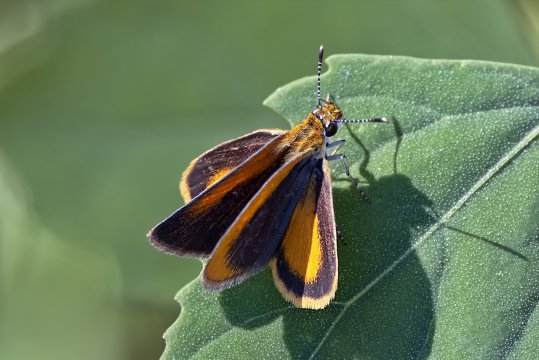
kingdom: Animalia
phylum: Arthropoda
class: Insecta
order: Lepidoptera
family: Hesperiidae
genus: Ancyloxypha
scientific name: Ancyloxypha numitor
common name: Least Skipper
